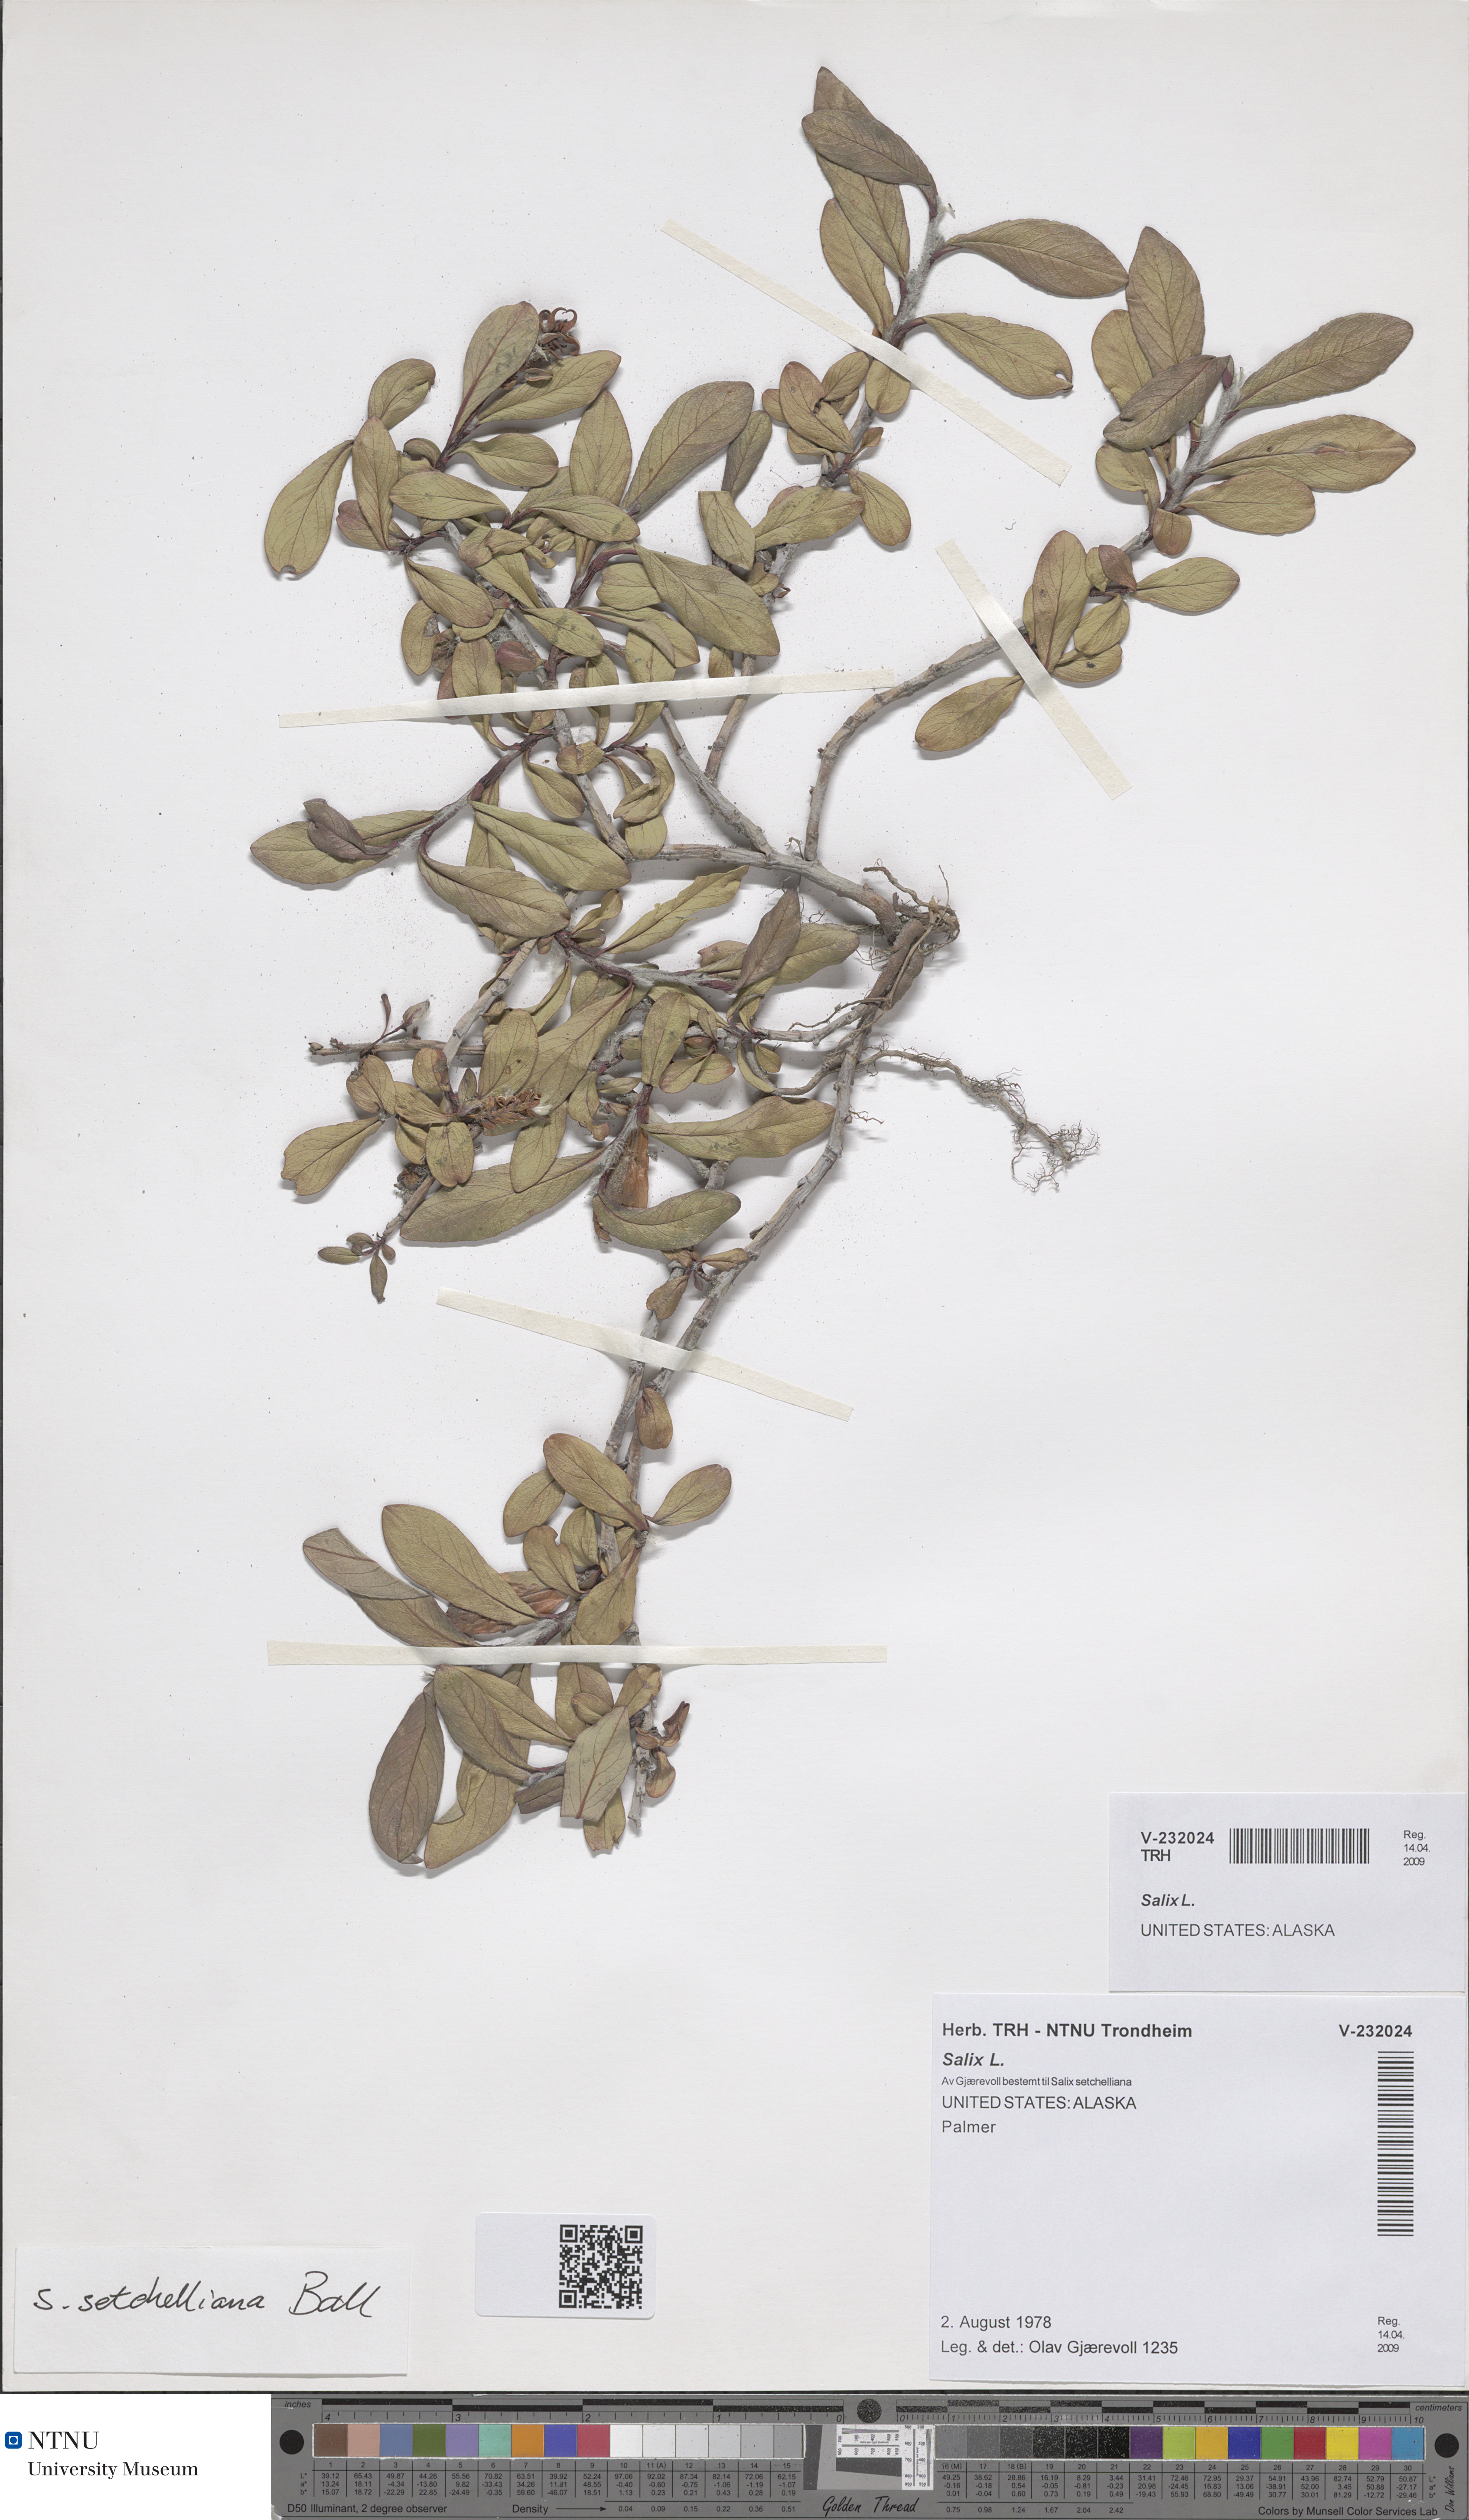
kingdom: Plantae
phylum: Tracheophyta
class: Magnoliopsida
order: Malpighiales
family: Salicaceae
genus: Salix
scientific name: Salix
